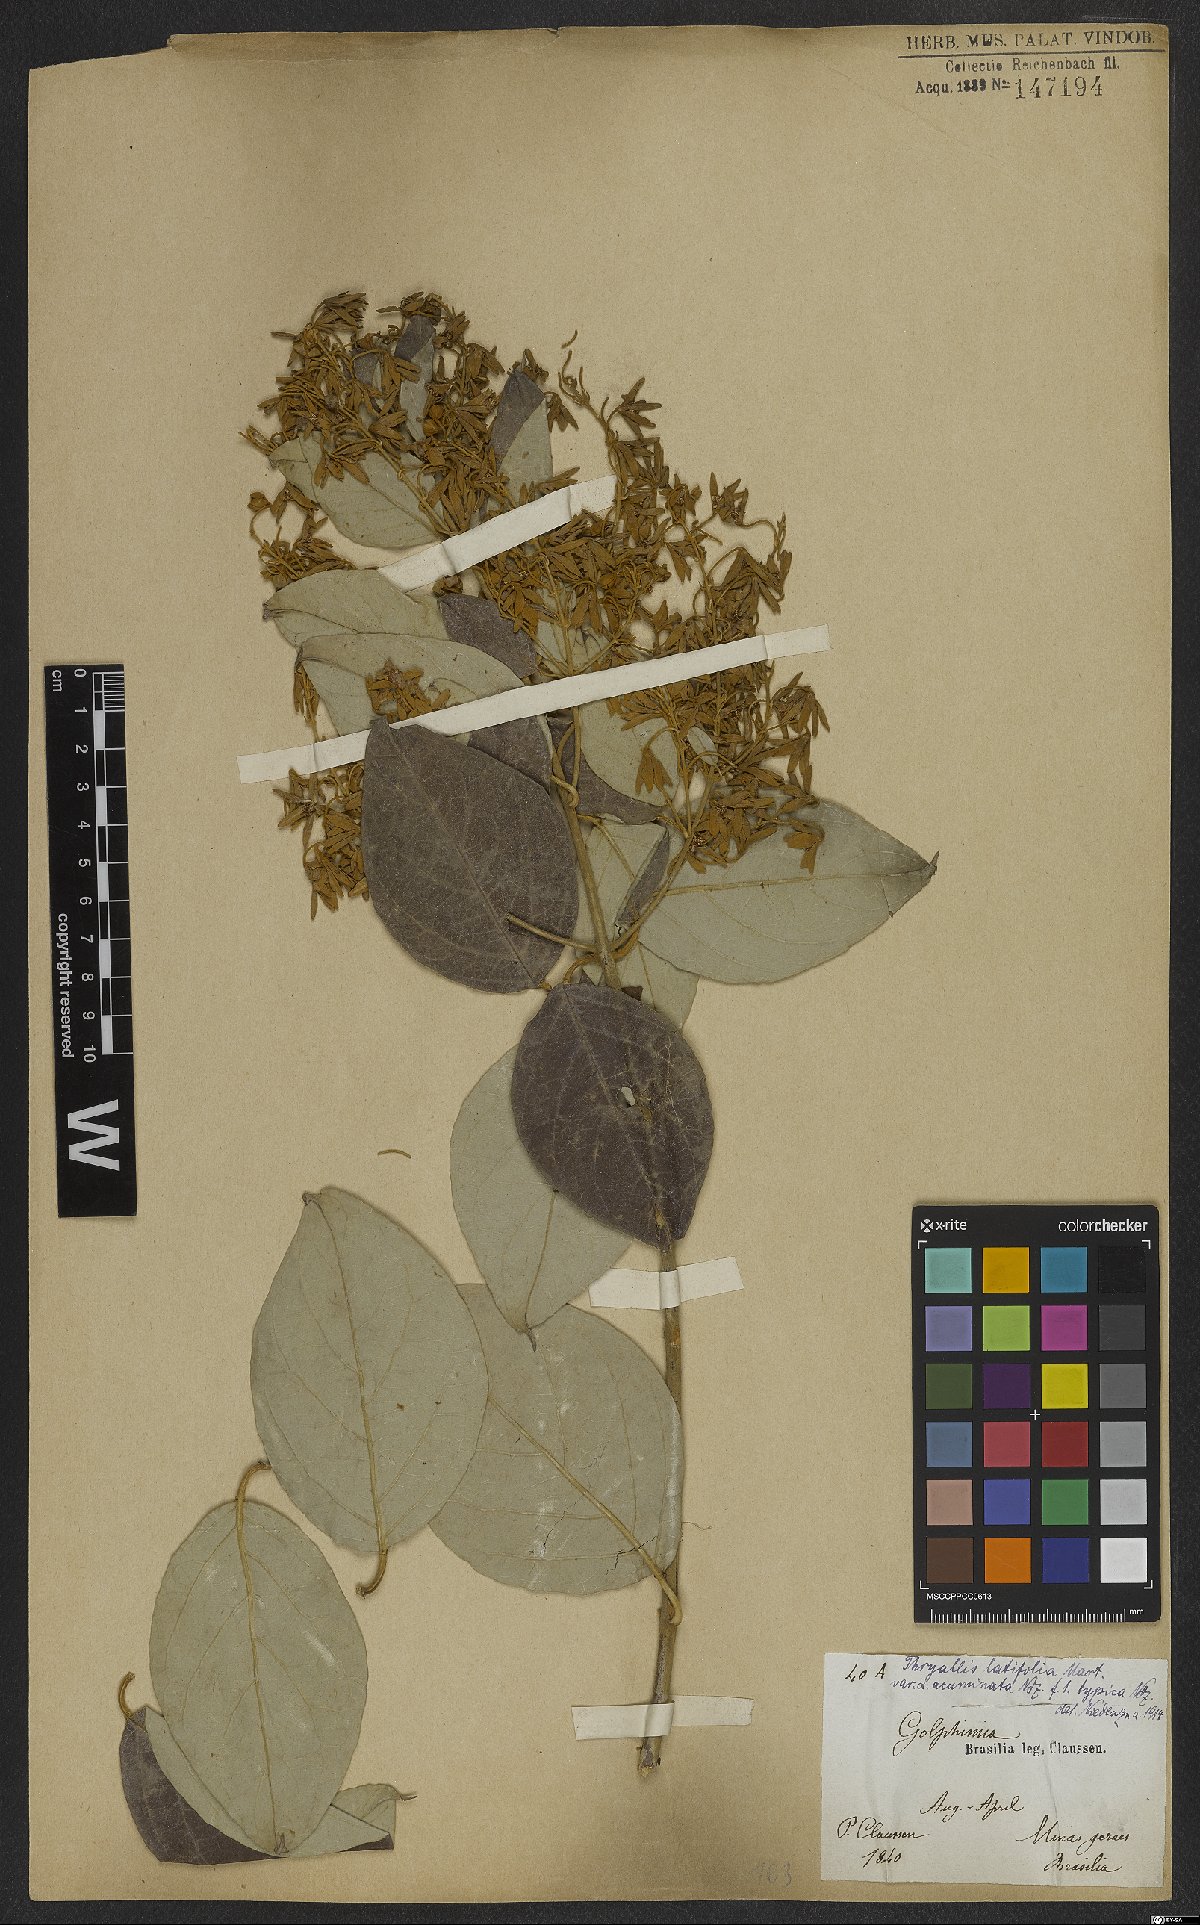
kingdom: Plantae
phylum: Tracheophyta
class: Magnoliopsida
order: Malpighiales
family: Malpighiaceae
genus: Thryallis
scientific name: Thryallis latifolia
